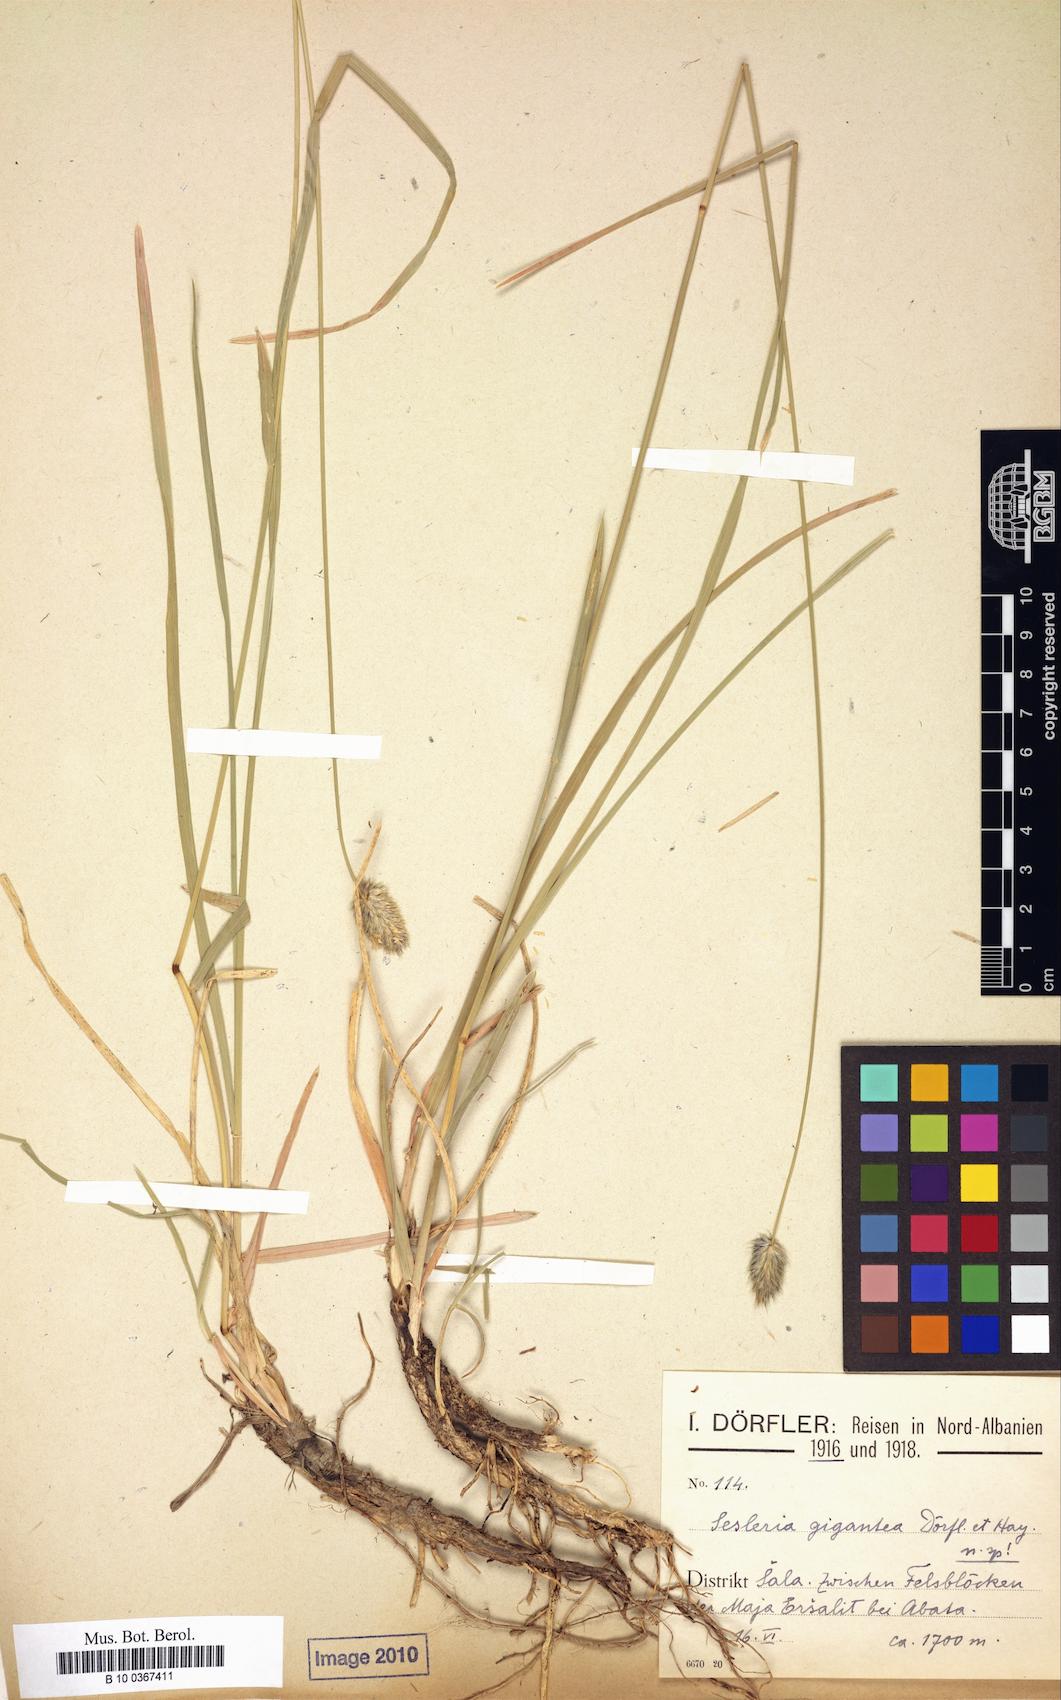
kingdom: Plantae
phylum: Tracheophyta
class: Liliopsida
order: Poales
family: Poaceae
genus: Sesleria
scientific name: Sesleria wettsteinii
